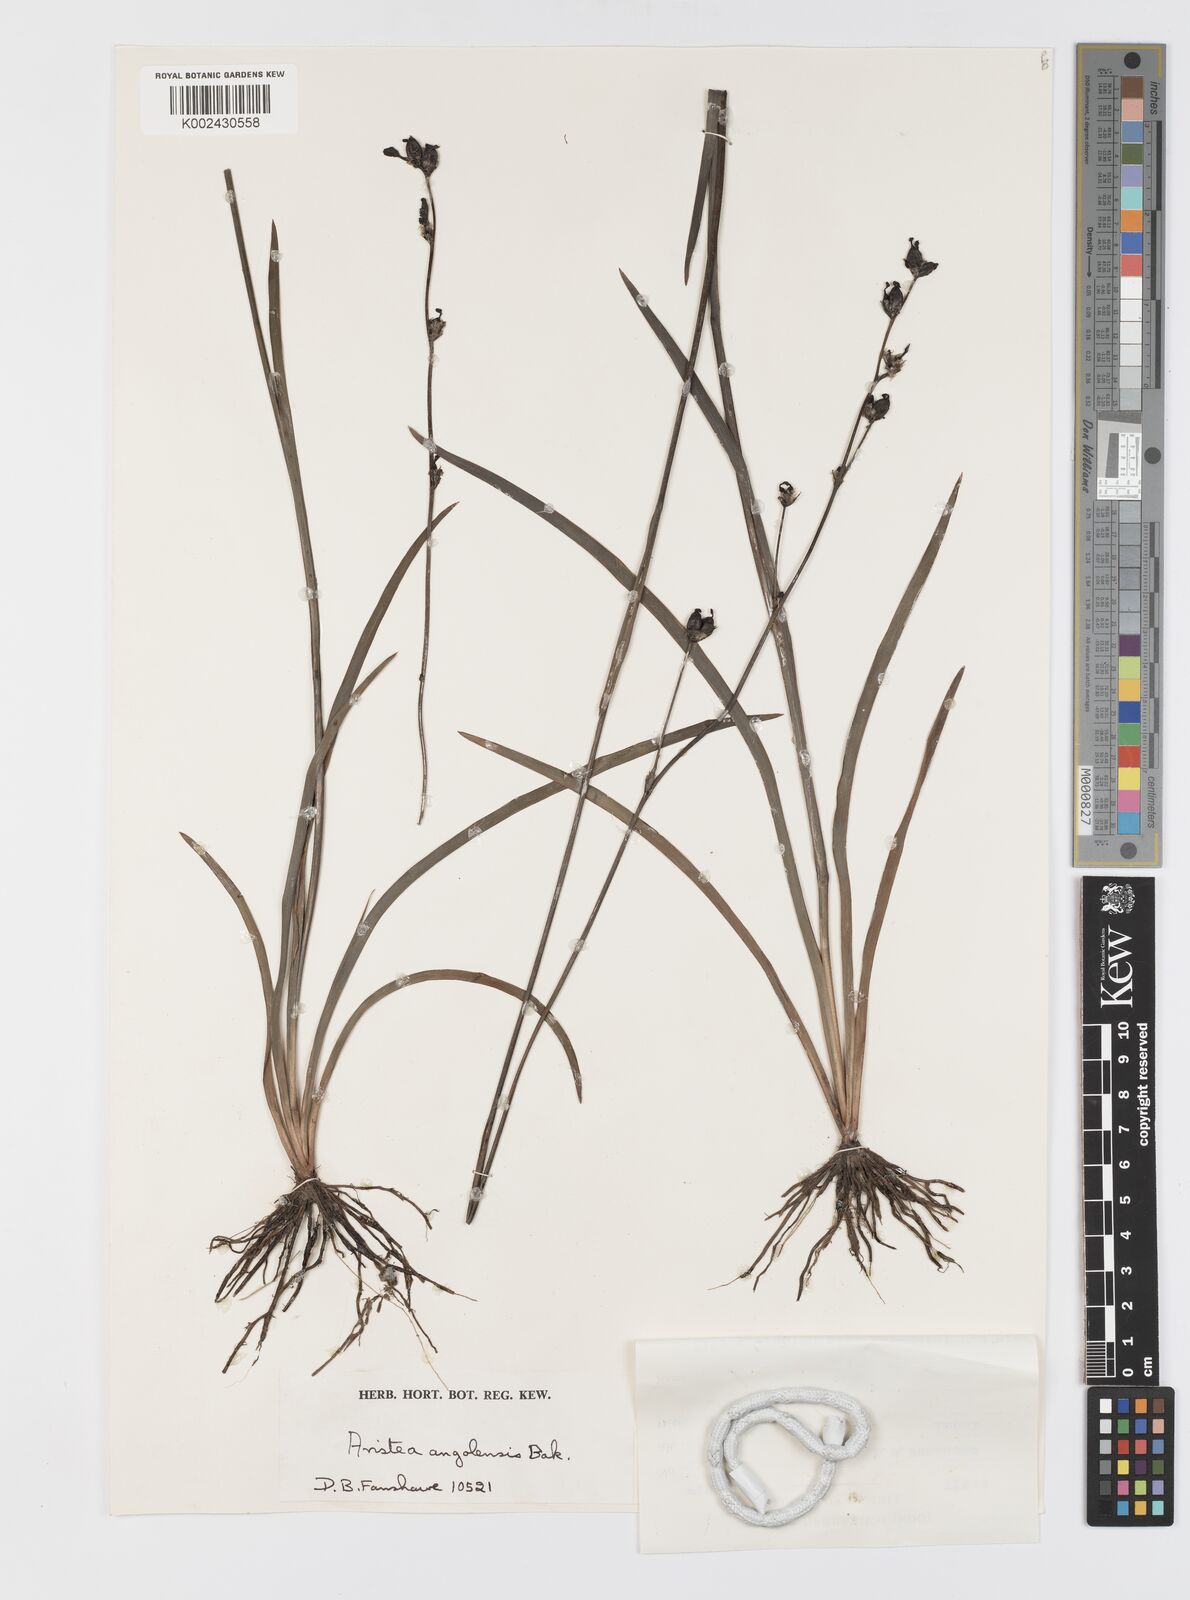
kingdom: Plantae
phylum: Tracheophyta
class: Liliopsida
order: Asparagales
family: Iridaceae
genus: Aristea
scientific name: Aristea angolensis
